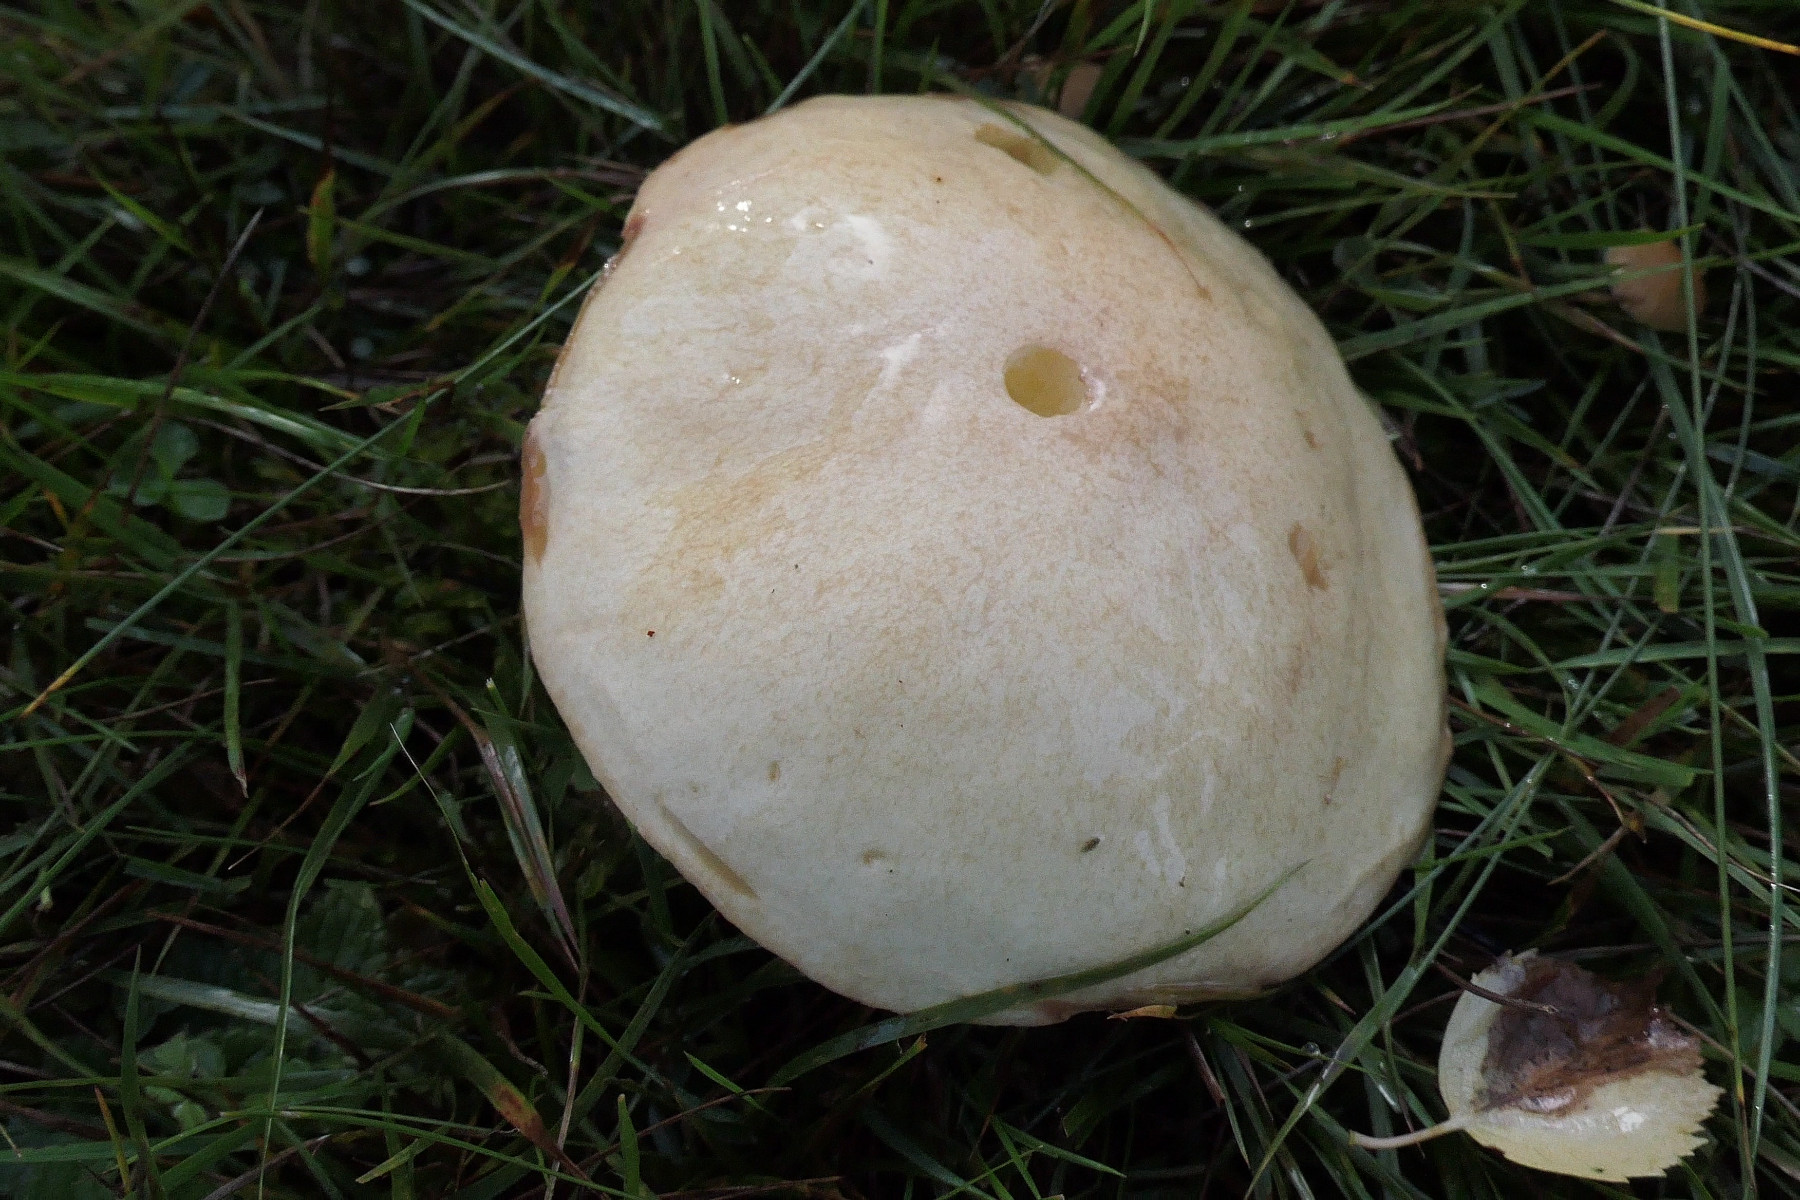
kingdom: Fungi
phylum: Basidiomycota
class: Agaricomycetes
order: Boletales
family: Suillaceae
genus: Suillus
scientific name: Suillus granulatus
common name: kornet slimrørhat
